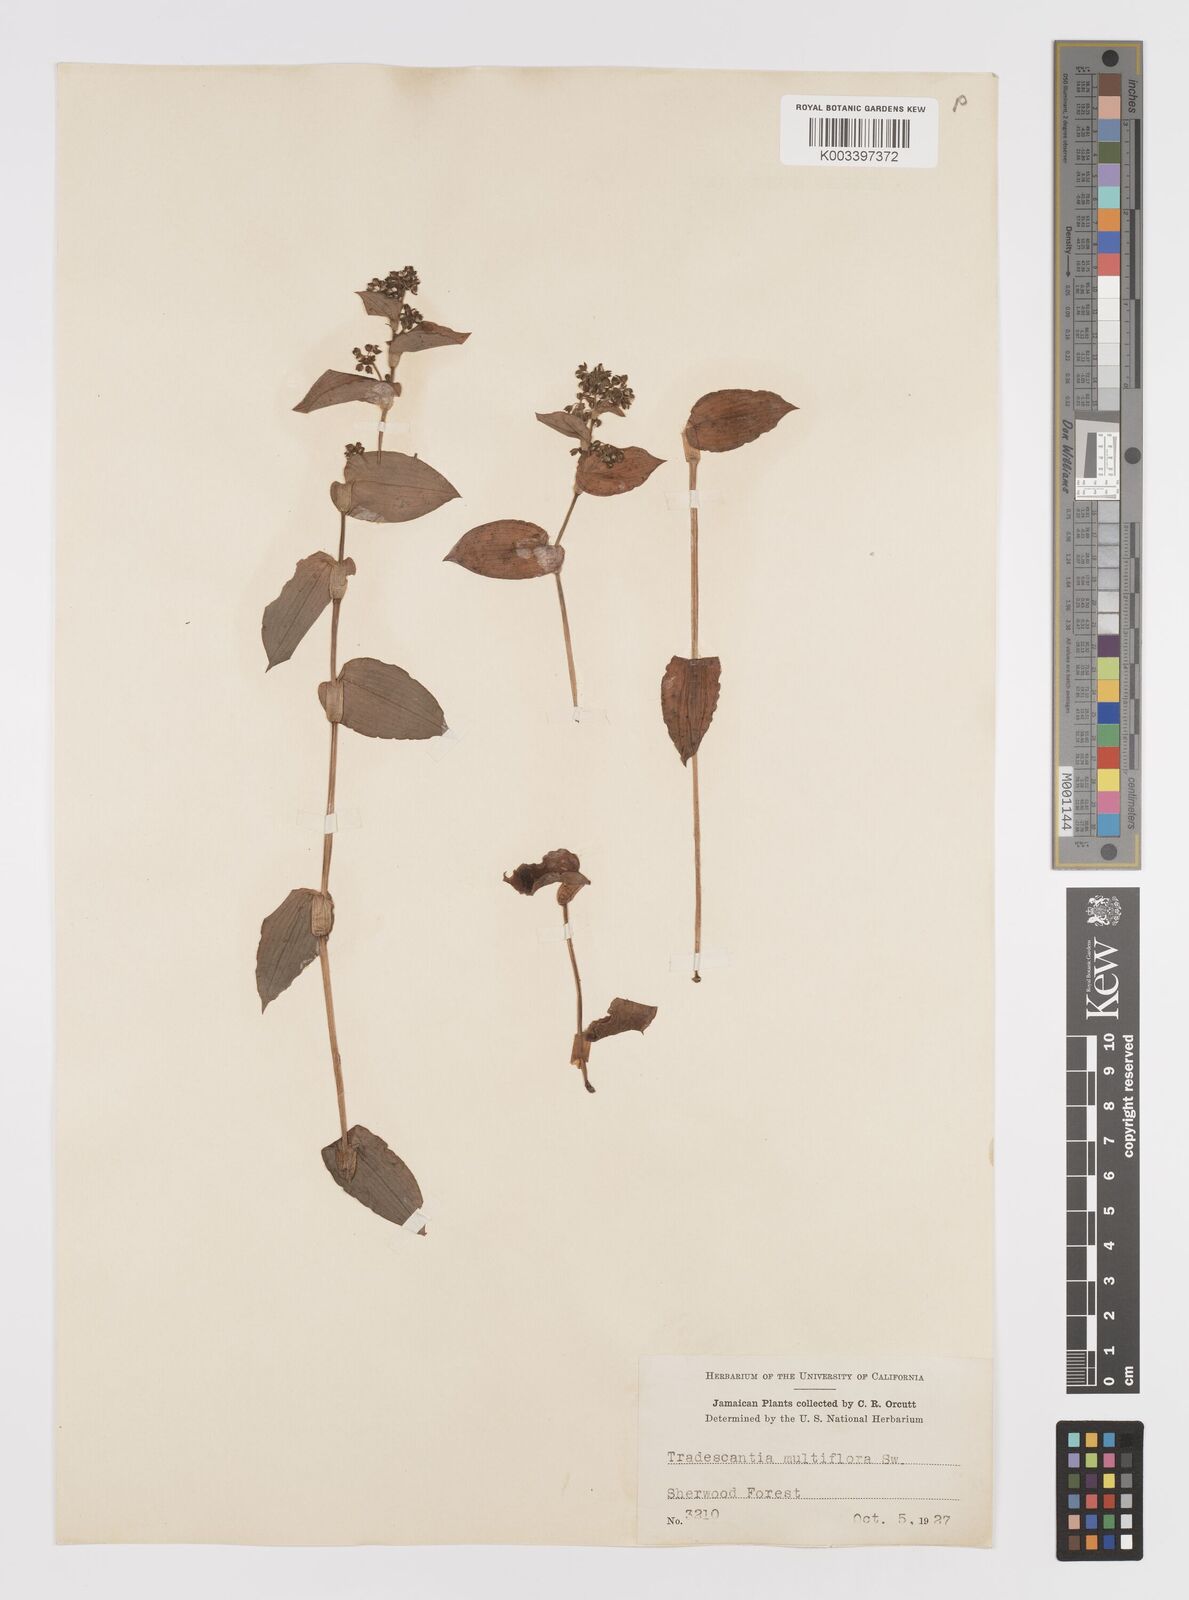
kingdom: Plantae
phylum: Tracheophyta
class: Liliopsida
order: Commelinales
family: Commelinaceae
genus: Callisia
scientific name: Callisia procumbens
